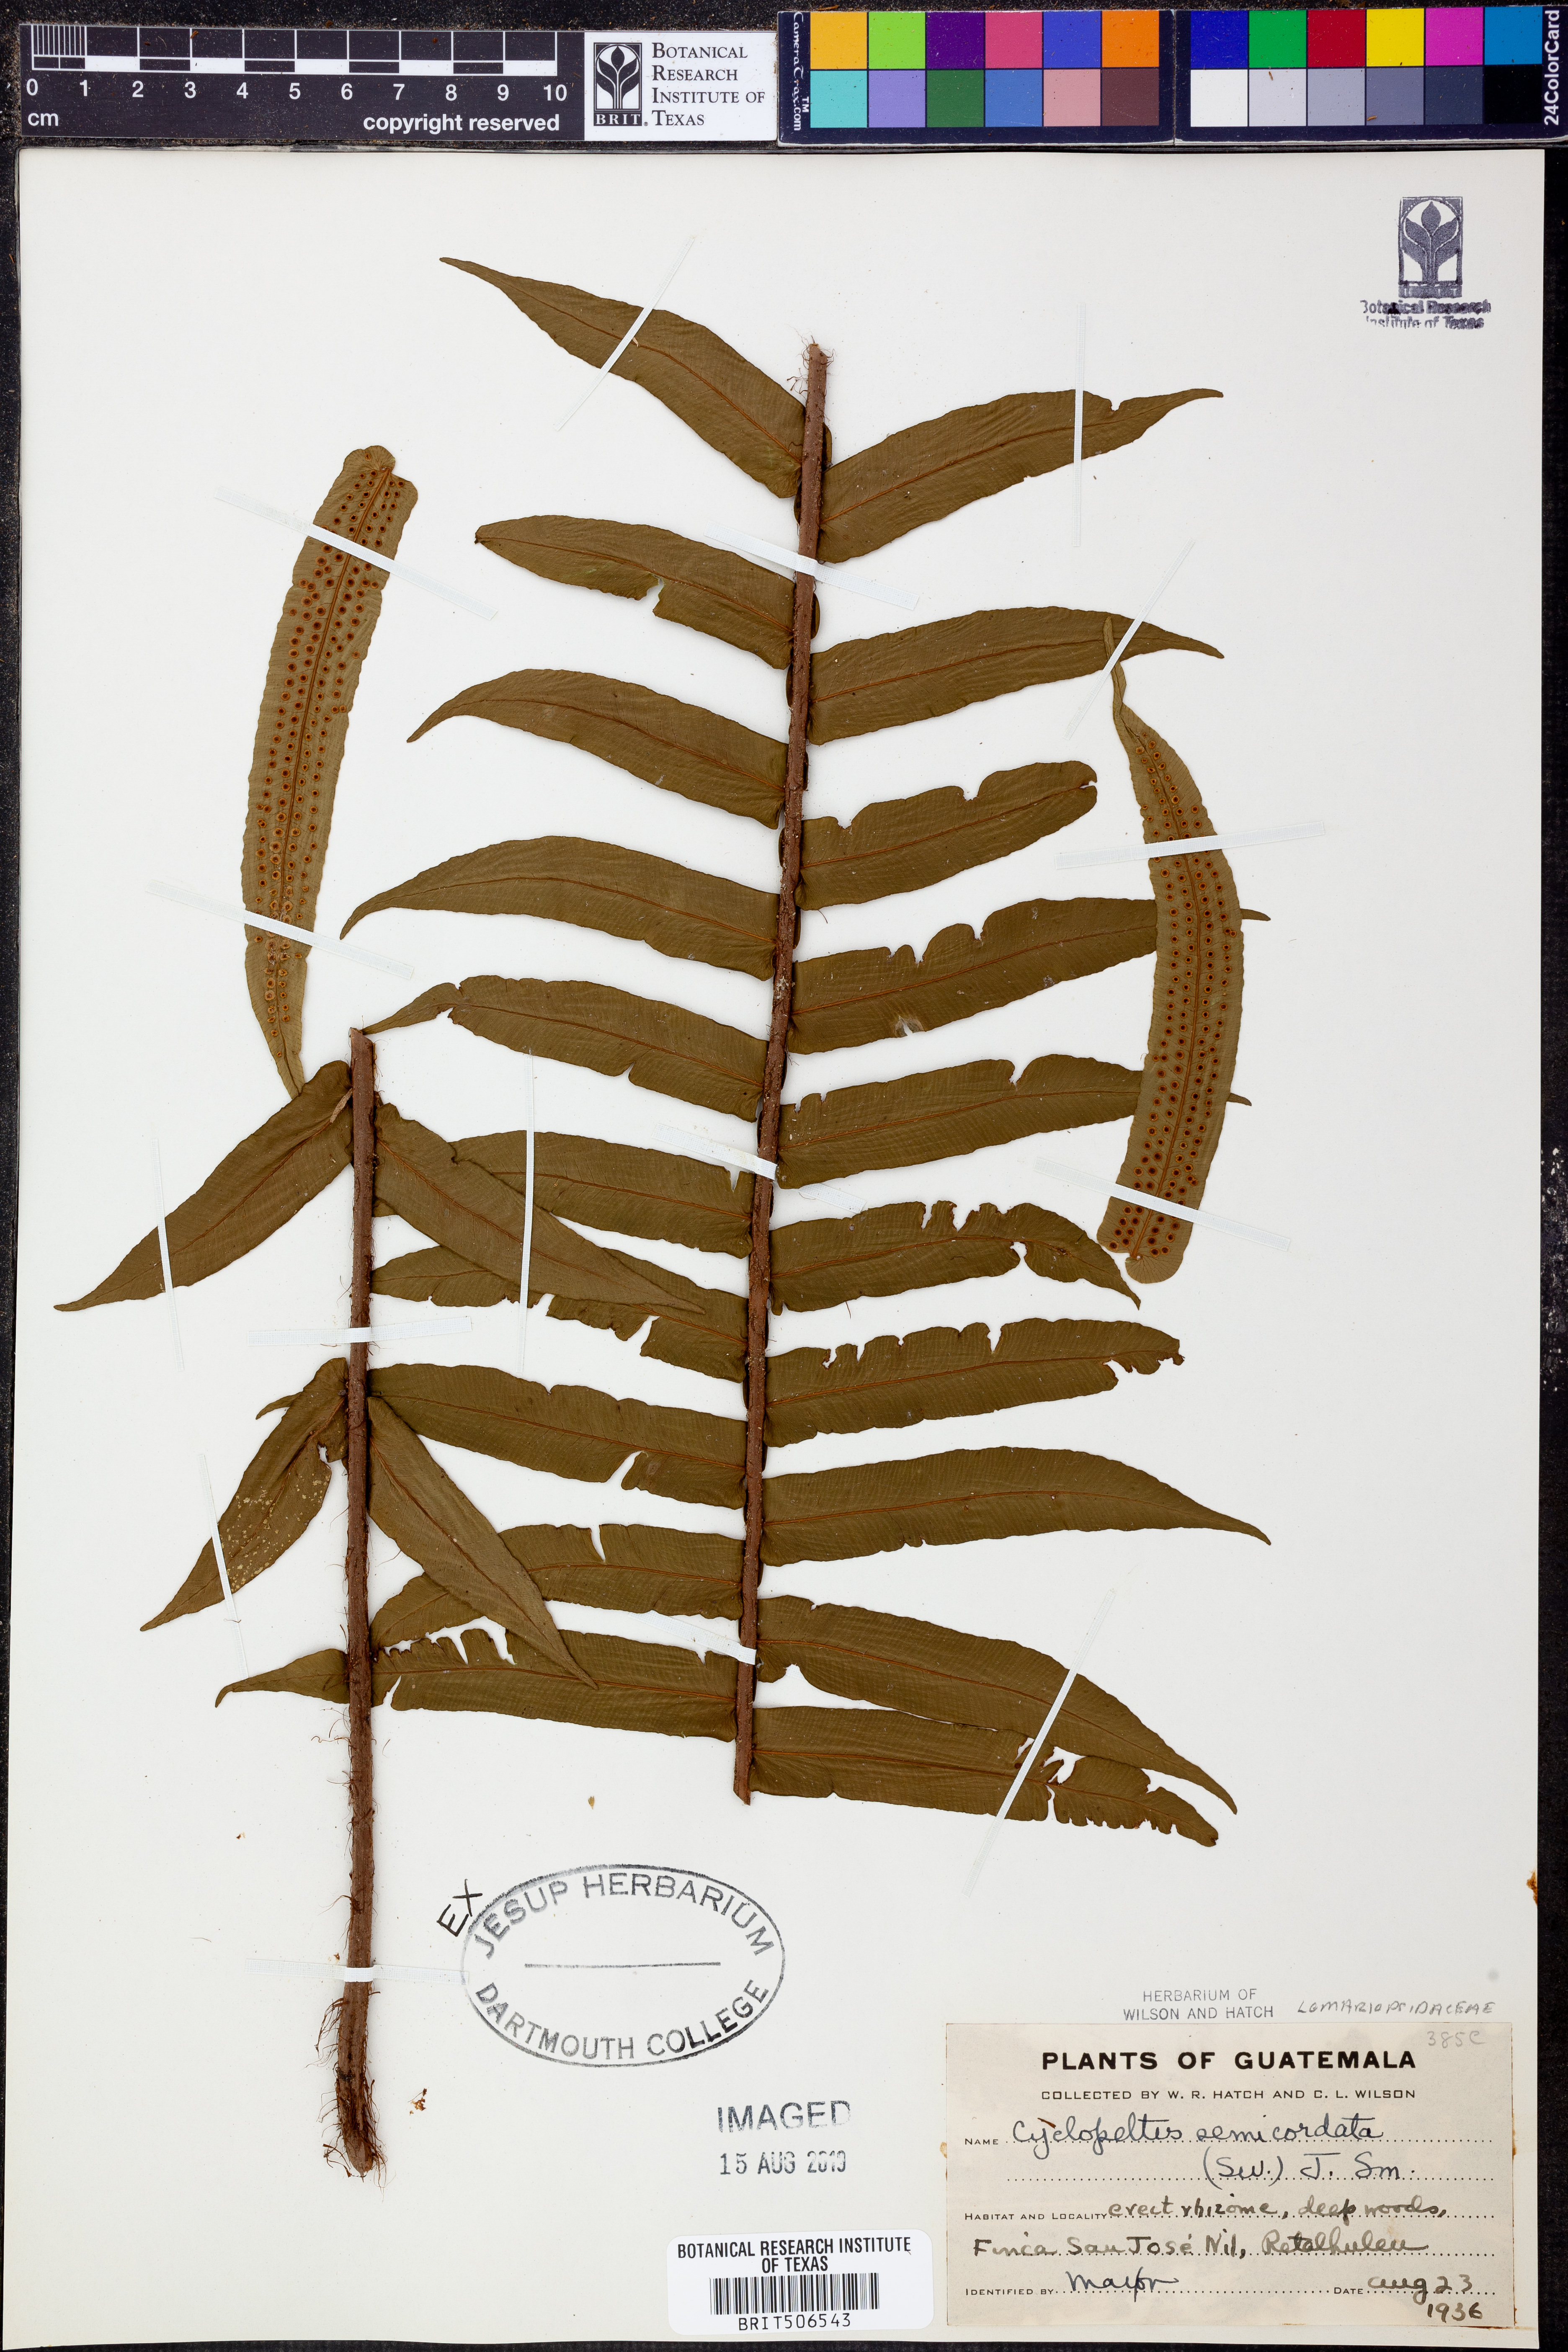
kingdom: Plantae
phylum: Tracheophyta
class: Polypodiopsida
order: Polypodiales
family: Lomariopsidaceae
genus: Cyclopeltis
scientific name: Cyclopeltis semicordata
